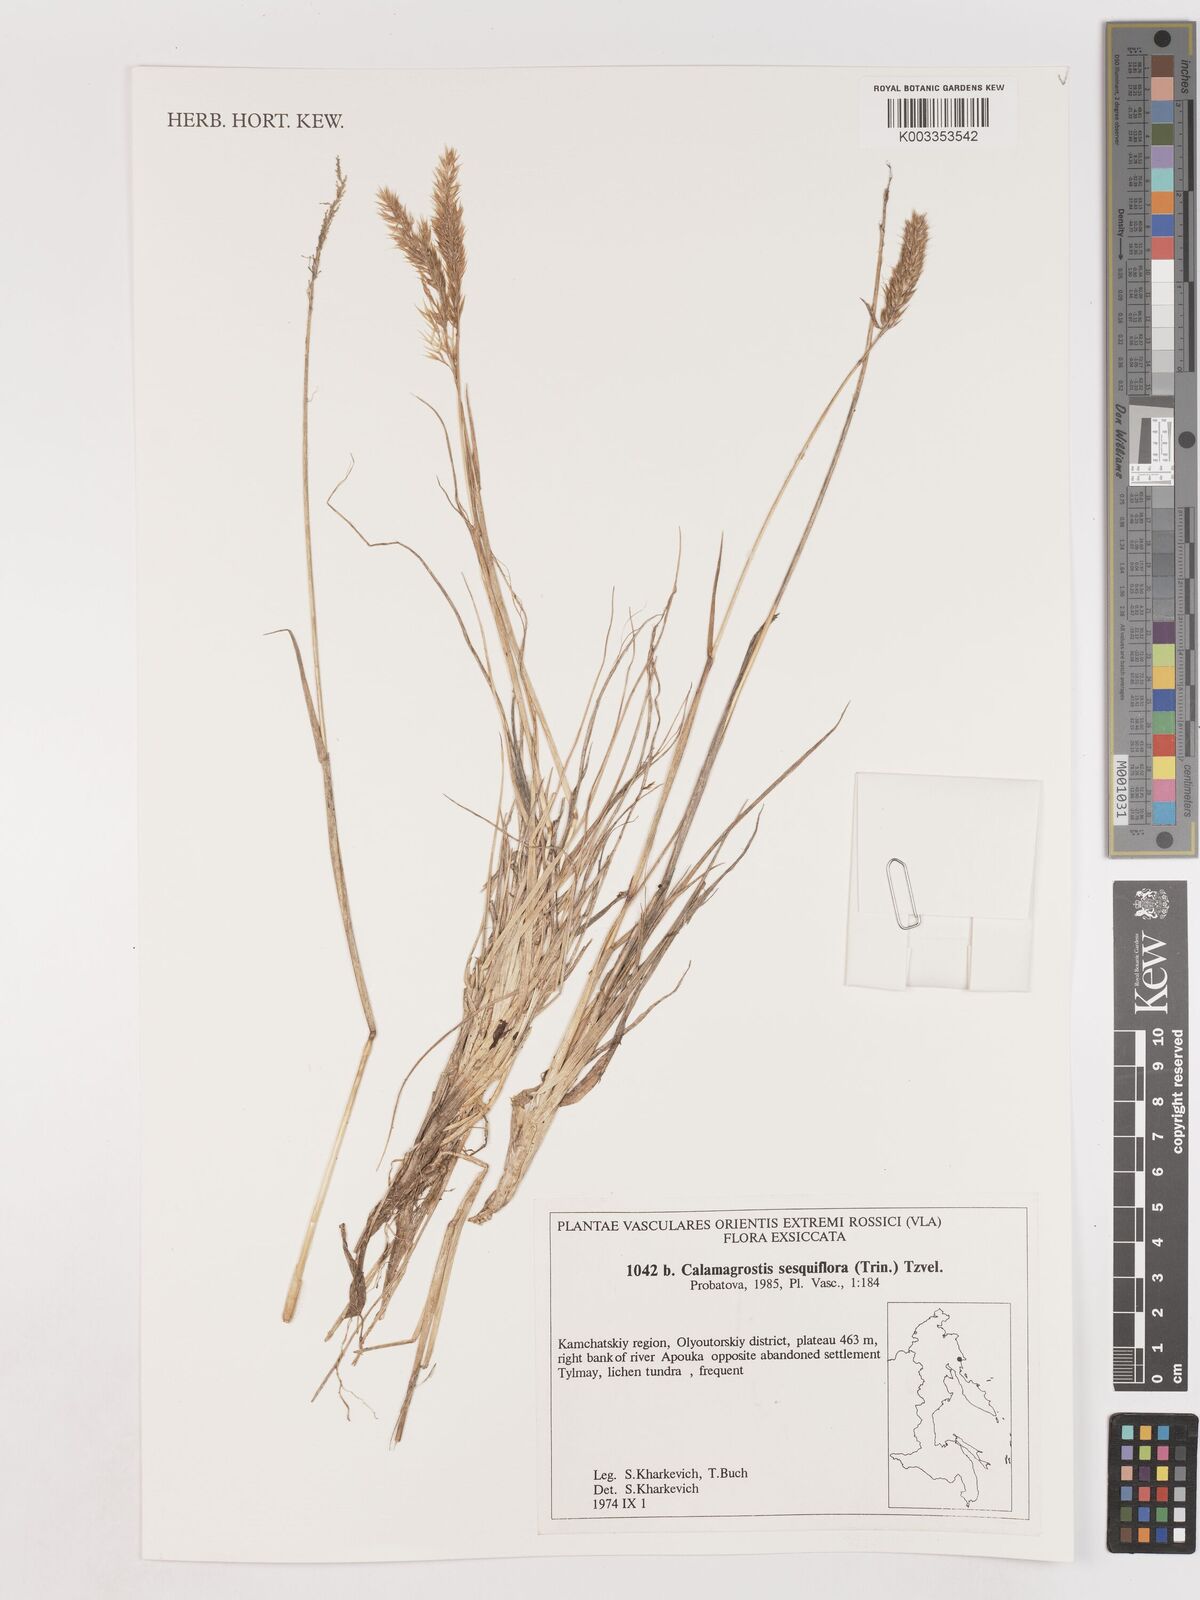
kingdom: Plantae
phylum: Tracheophyta
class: Liliopsida
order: Poales
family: Poaceae
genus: Podagrostis
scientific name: Podagrostis sesquiflora
